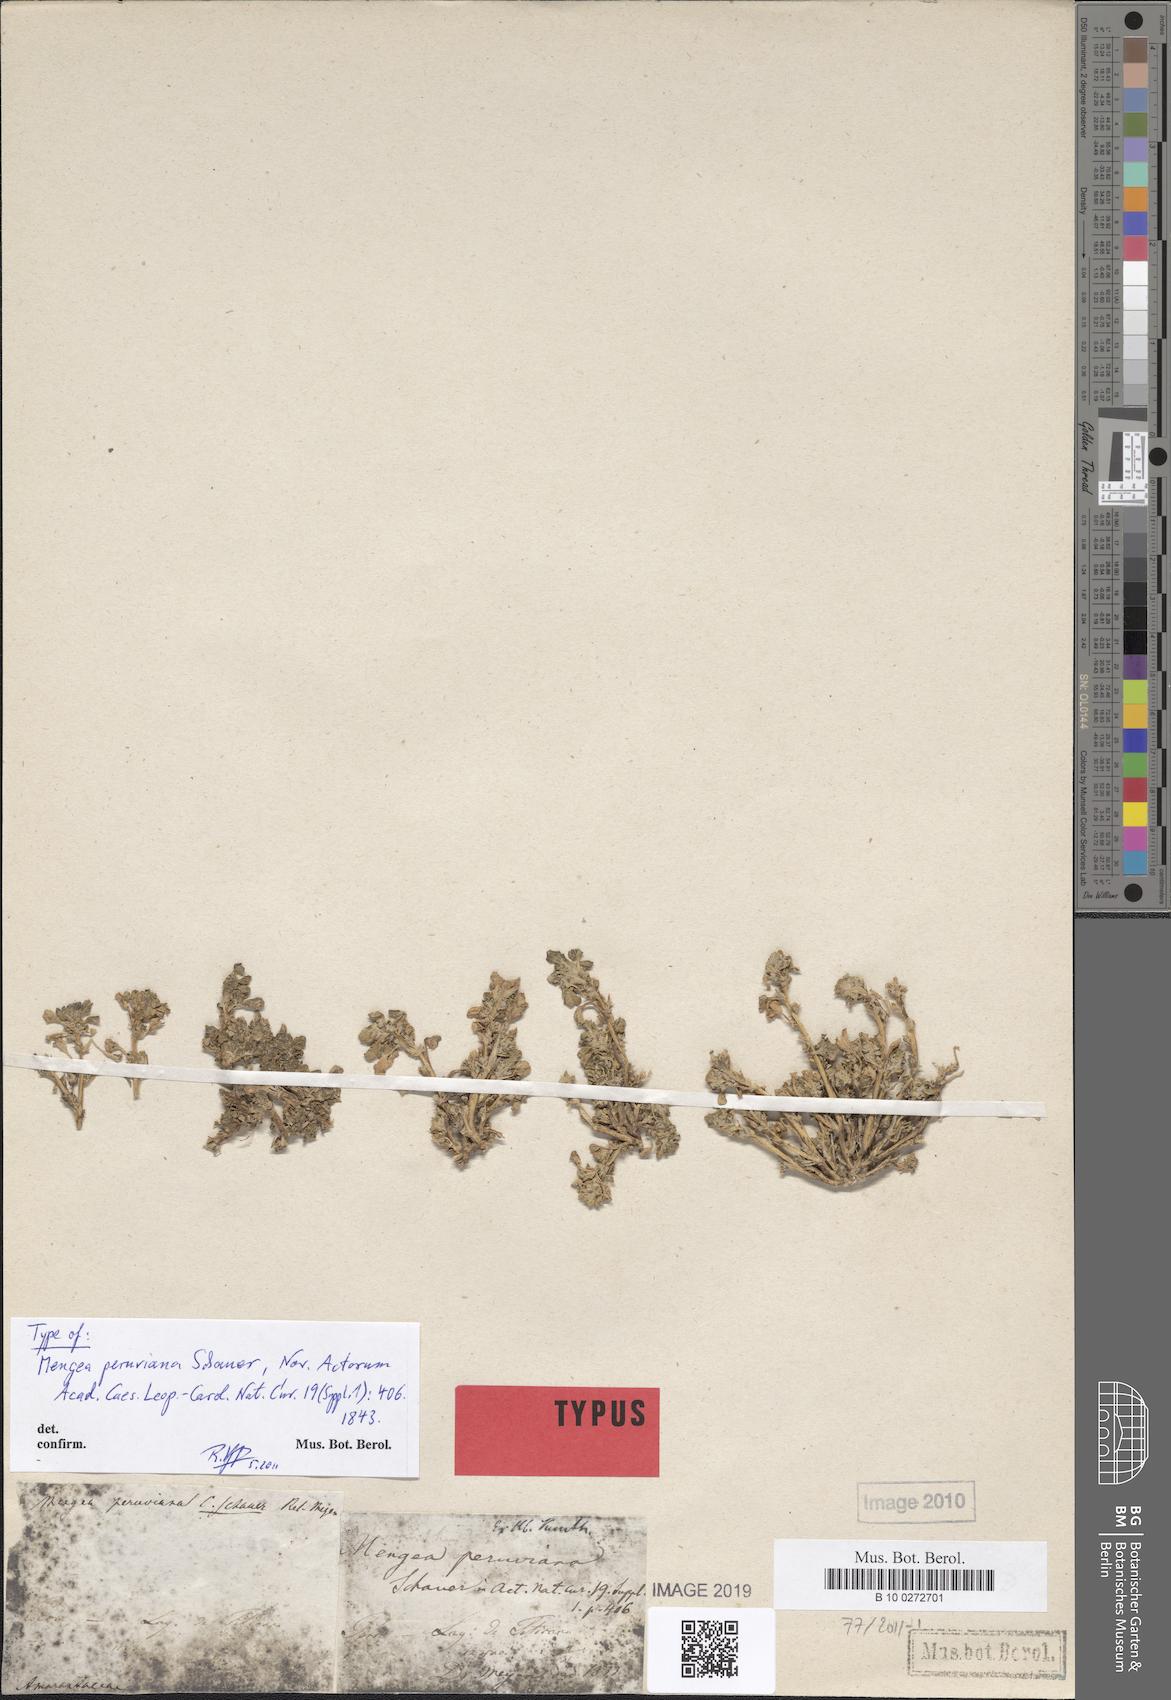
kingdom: Plantae
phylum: Tracheophyta
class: Magnoliopsida
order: Caryophyllales
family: Amaranthaceae
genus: Amaranthus
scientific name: Amaranthus peruvianus
